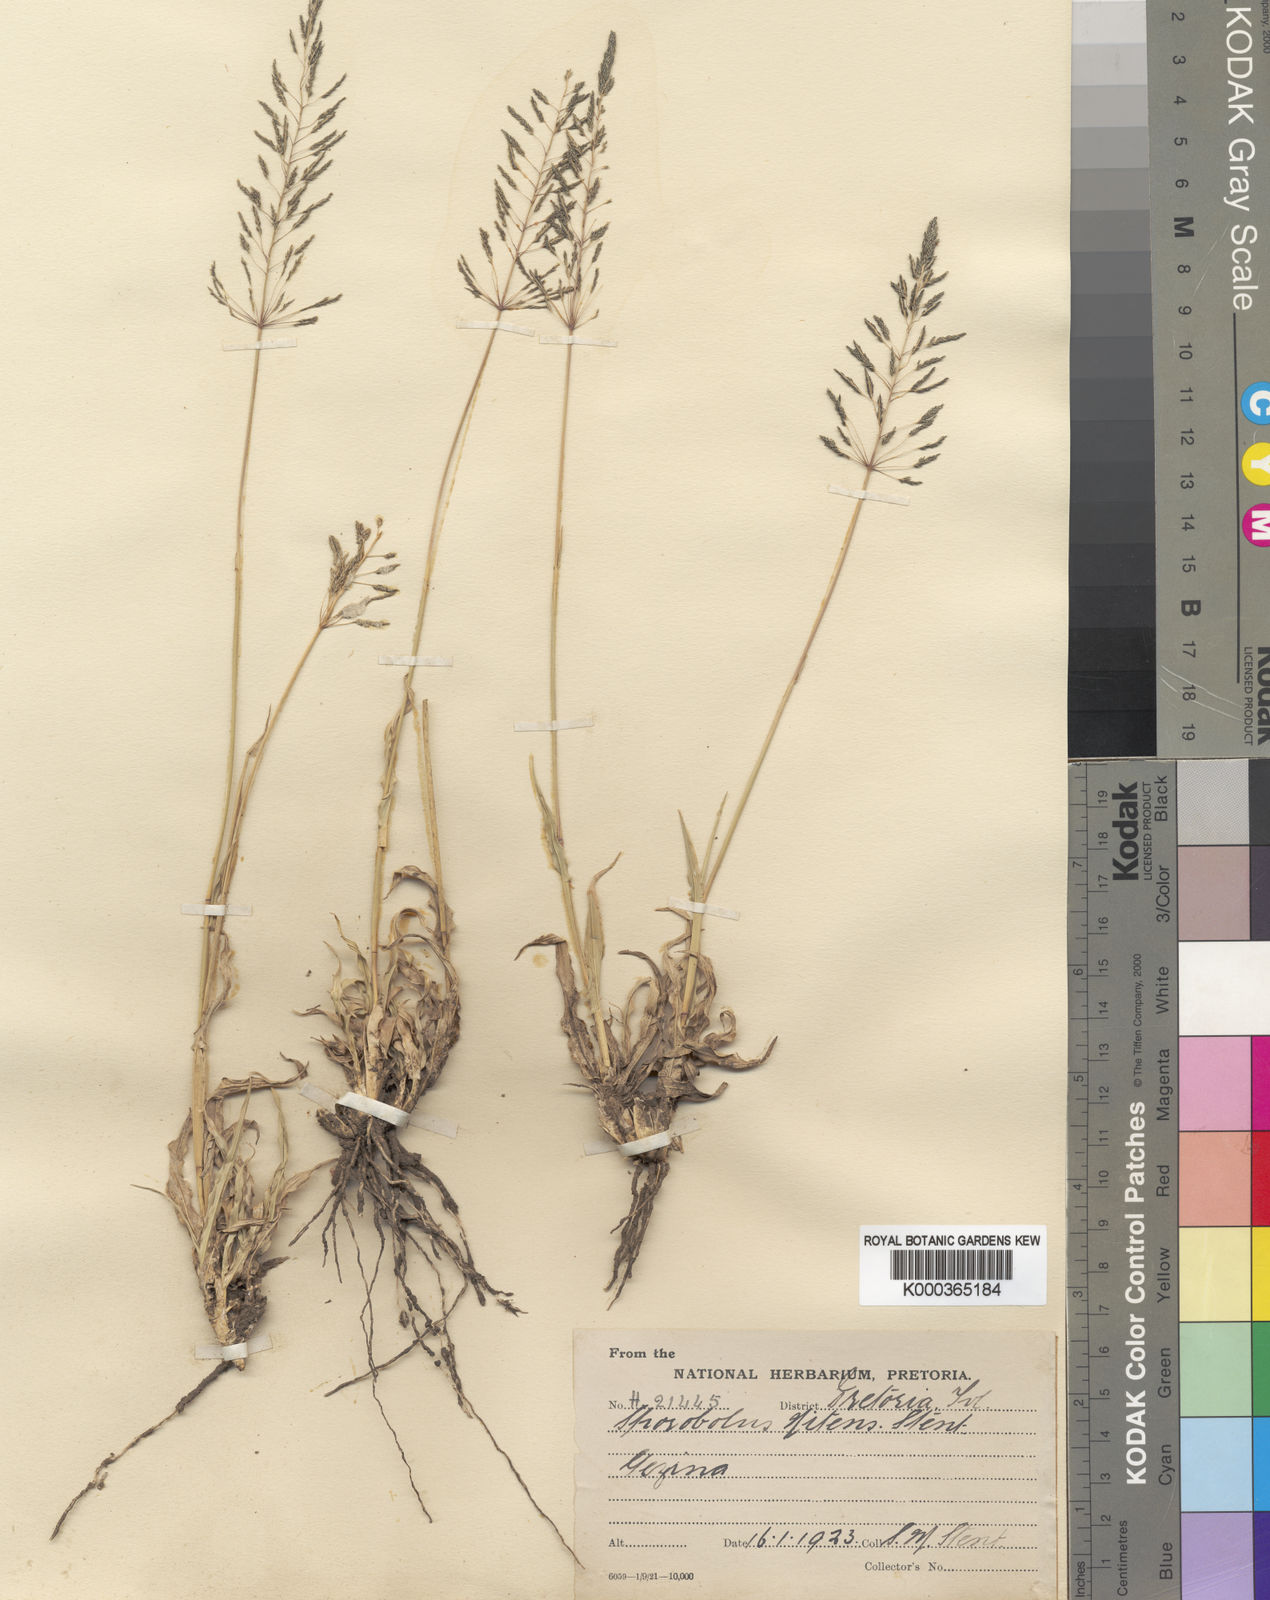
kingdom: Plantae
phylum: Tracheophyta
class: Liliopsida
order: Poales
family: Poaceae
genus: Sporobolus
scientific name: Sporobolus nitens
